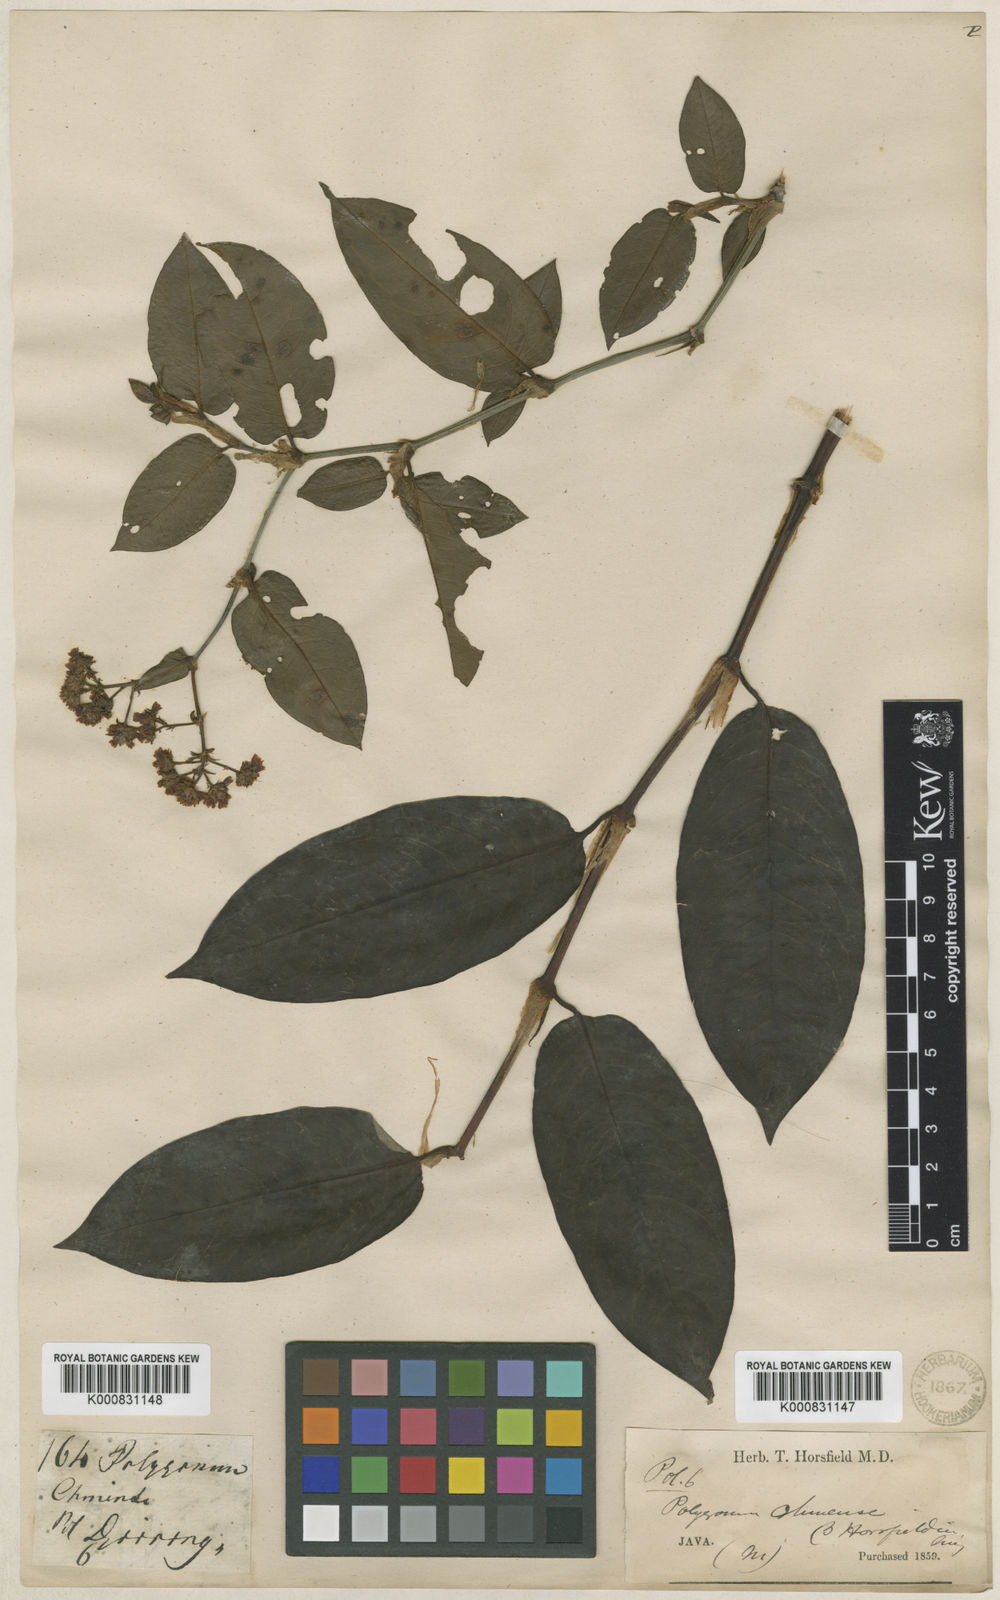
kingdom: Plantae
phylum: Tracheophyta
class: Magnoliopsida
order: Caryophyllales
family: Polygonaceae
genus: Persicaria
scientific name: Persicaria chinensis
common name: Chinese knotweed
